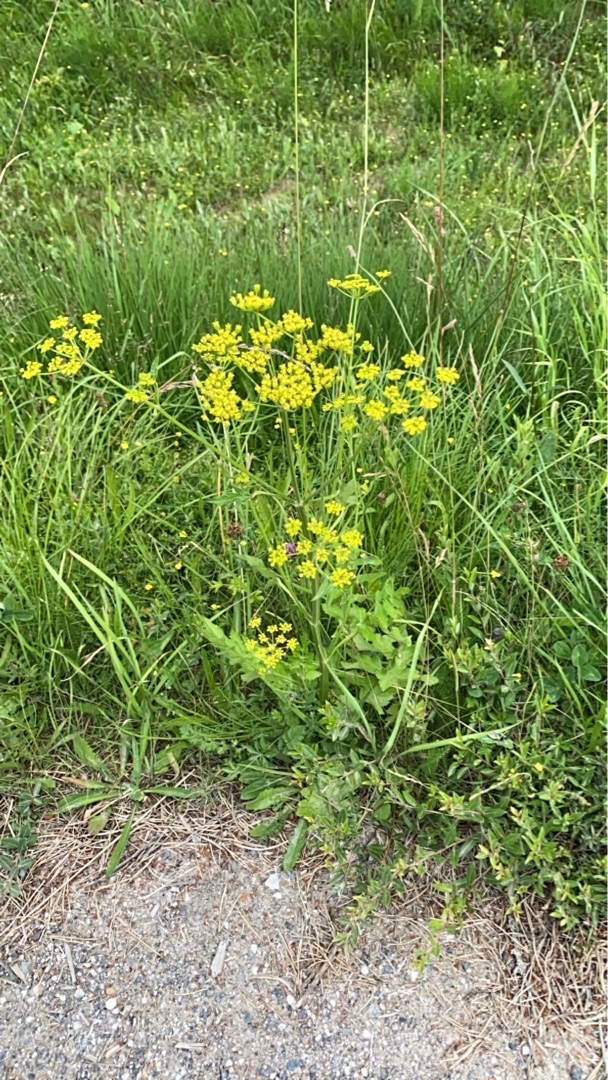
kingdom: Plantae
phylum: Tracheophyta
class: Magnoliopsida
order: Apiales
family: Apiaceae
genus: Pastinaca
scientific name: Pastinaca sativa
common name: Pastinak
